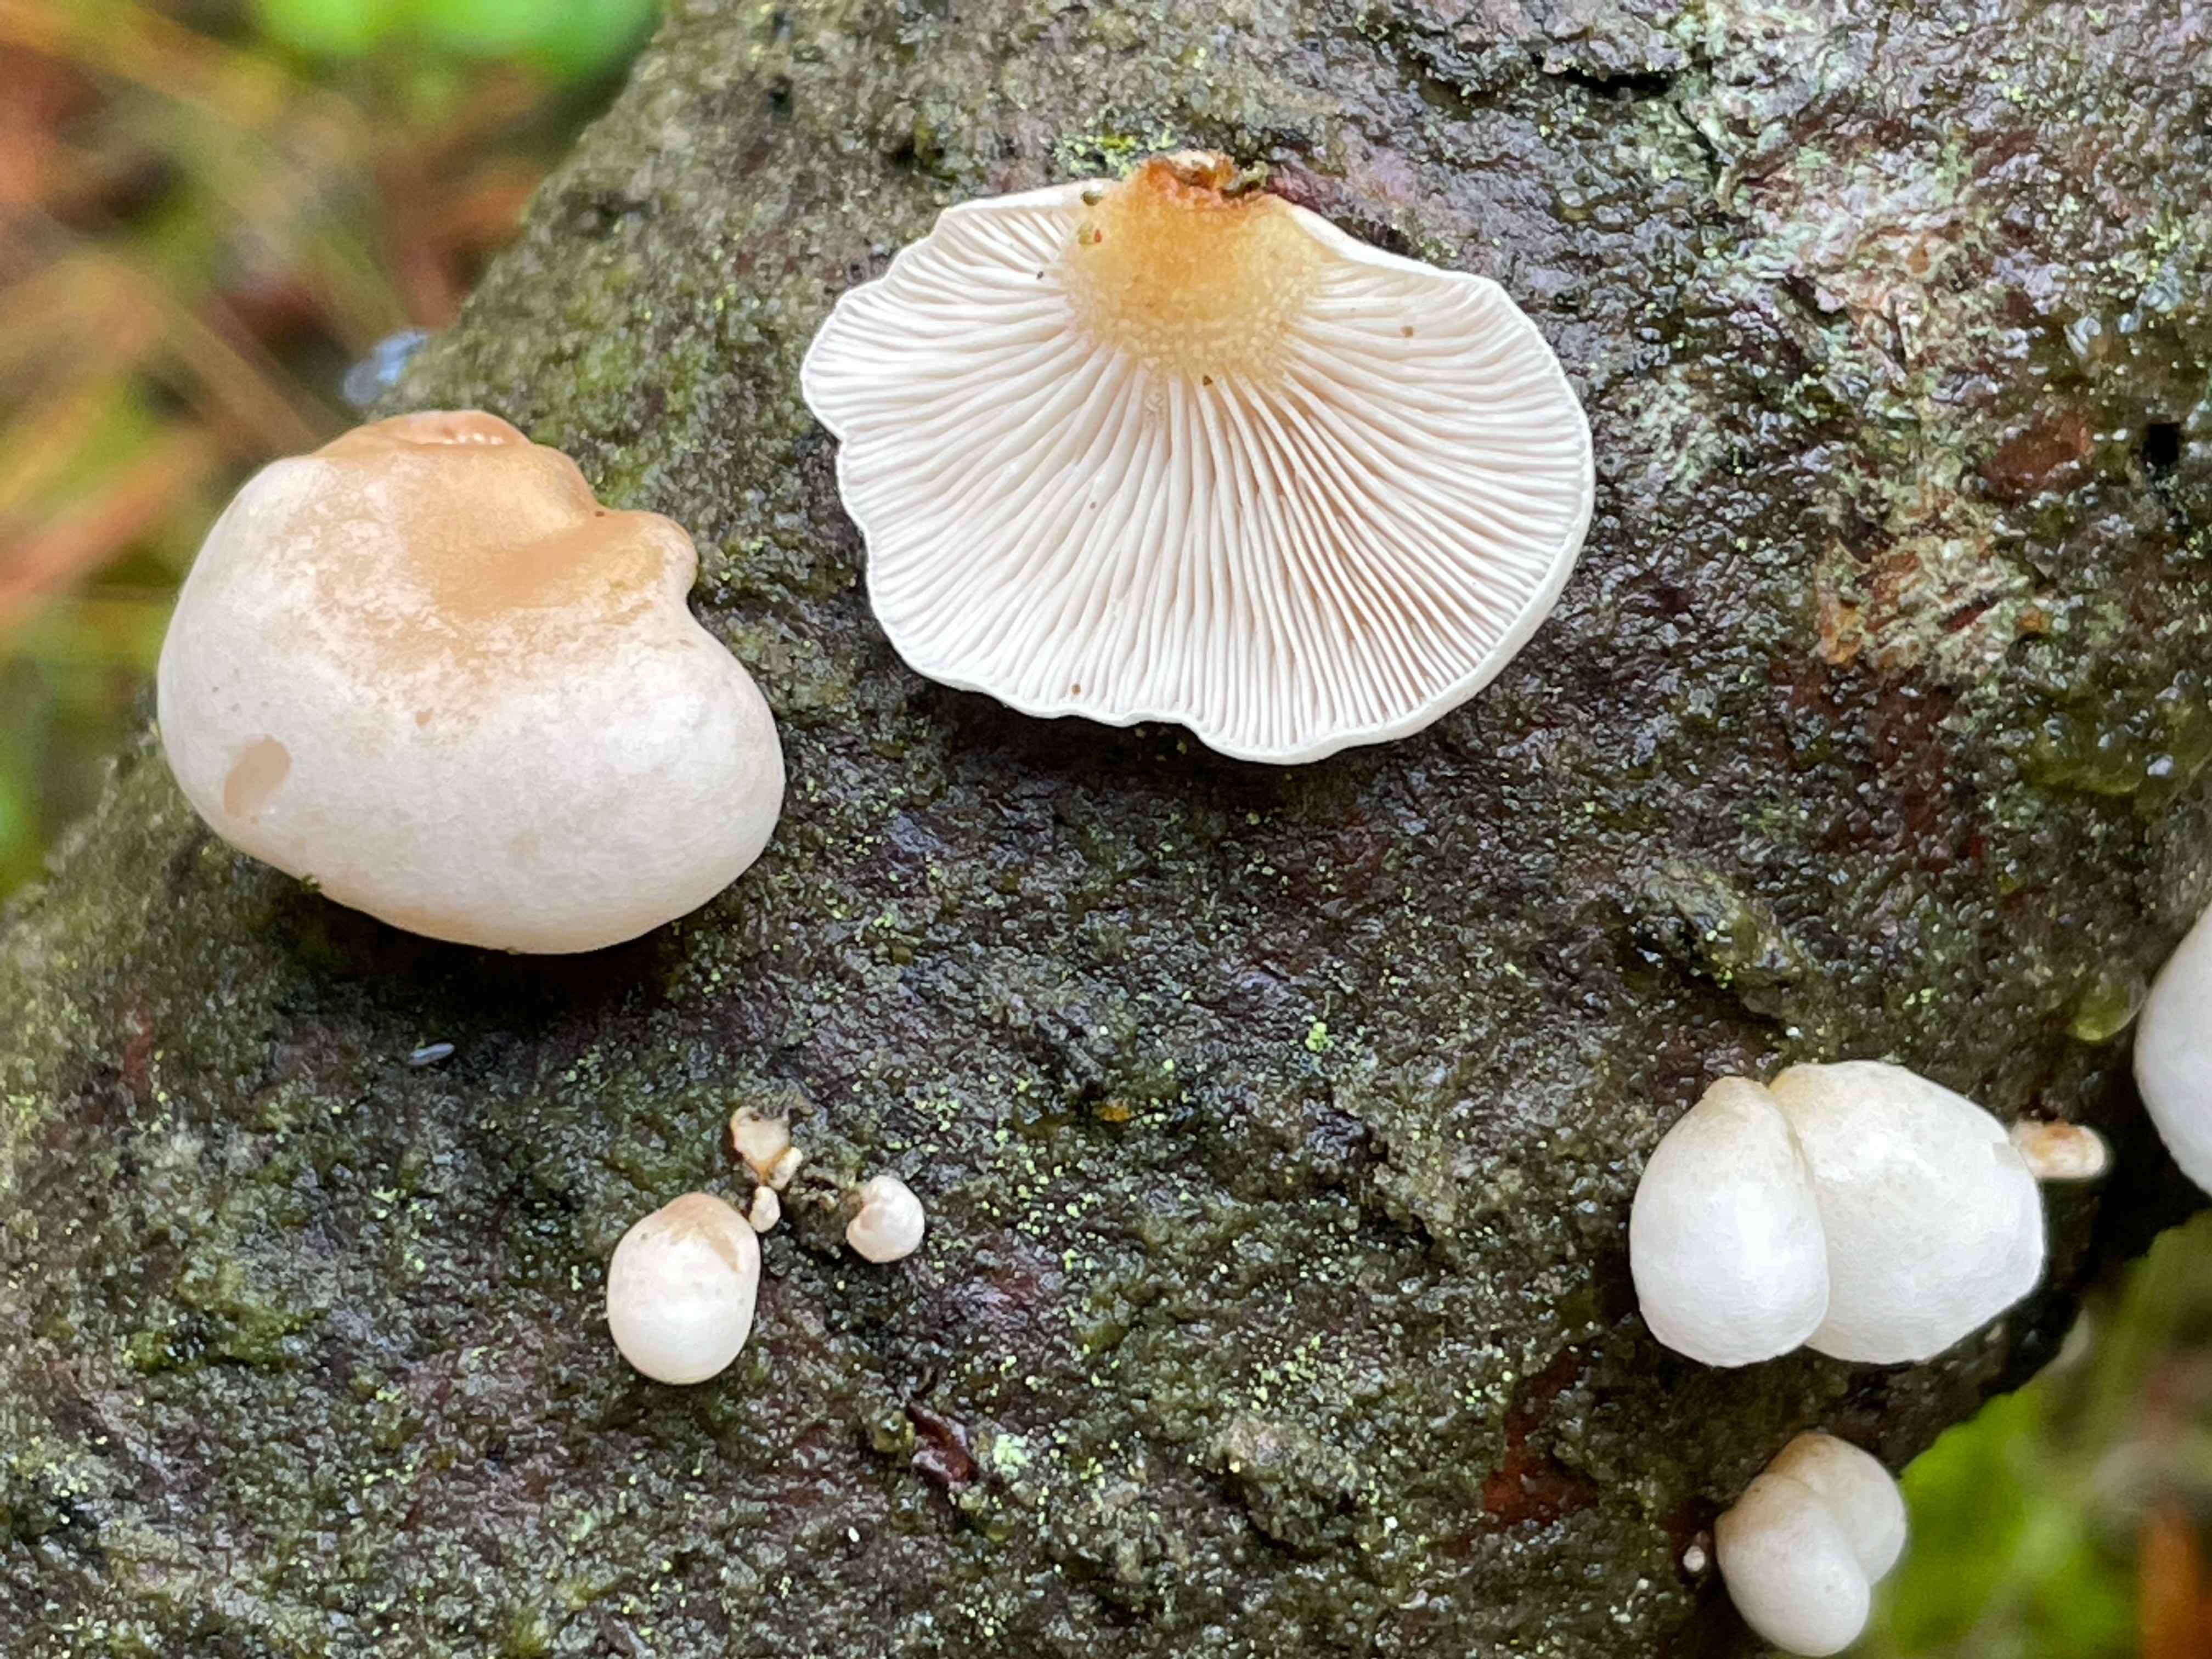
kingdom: Fungi
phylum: Basidiomycota
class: Agaricomycetes
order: Agaricales
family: Mycenaceae
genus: Panellus
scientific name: Panellus mitis
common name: mild epaulethat
